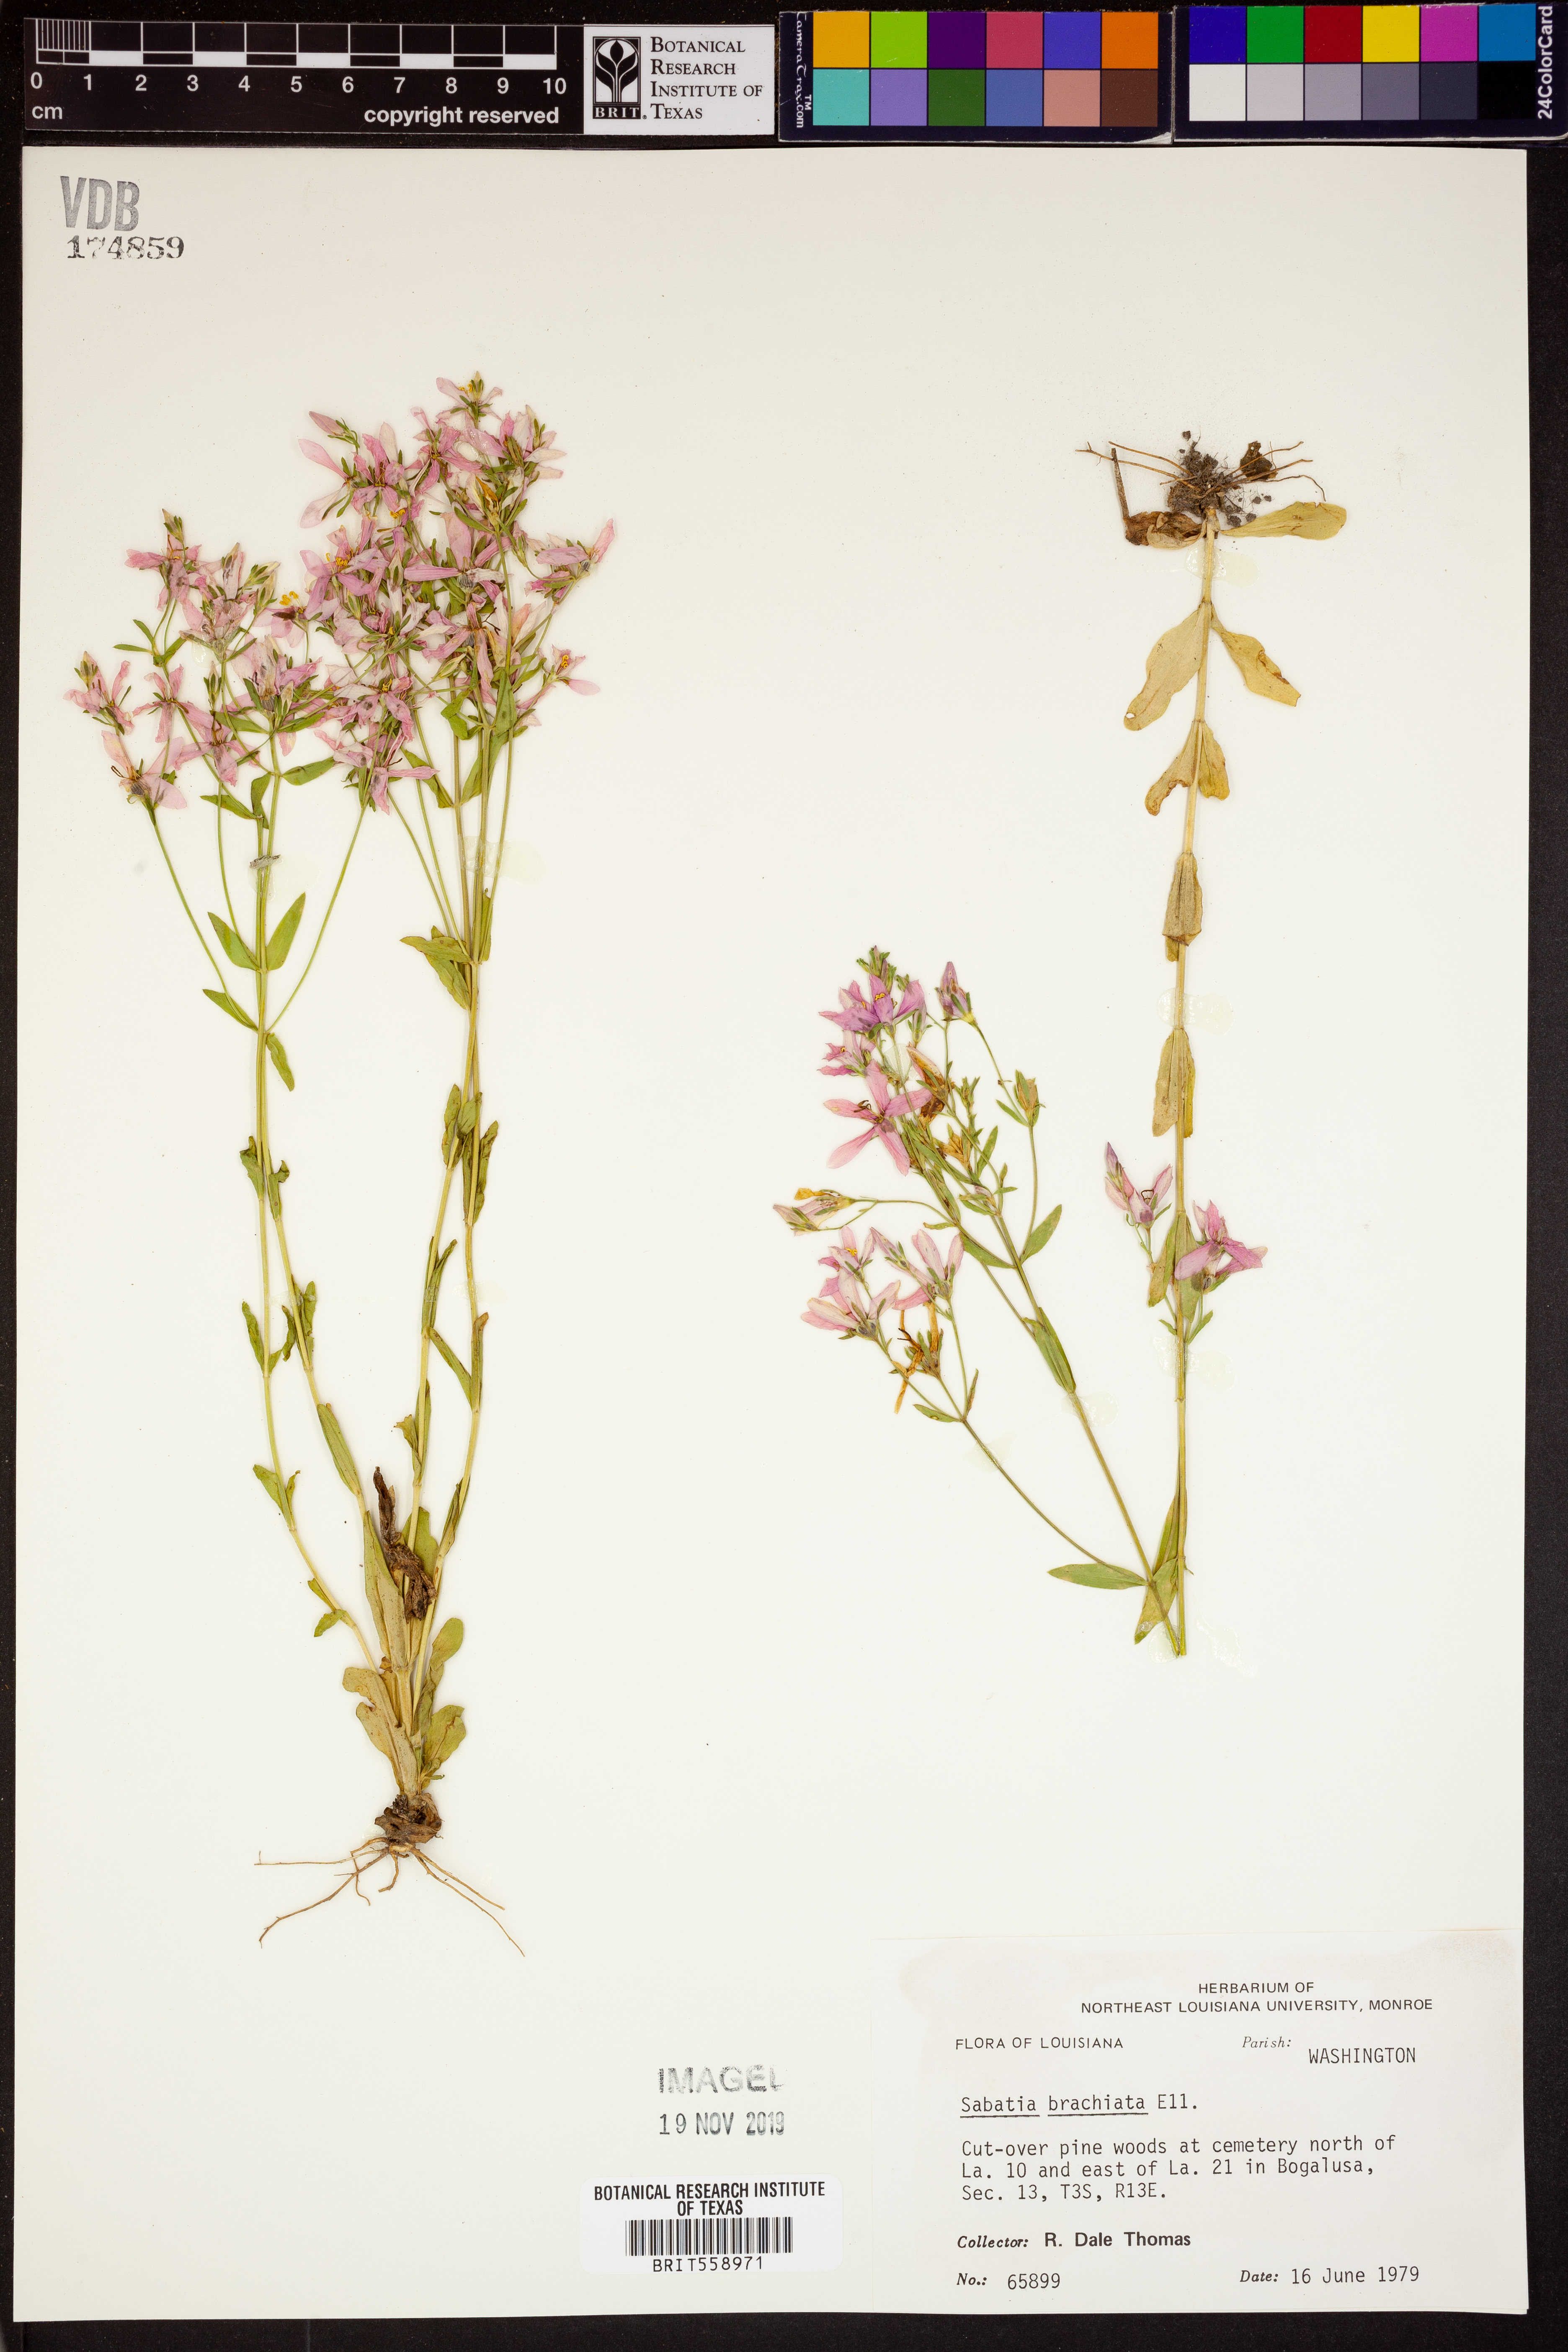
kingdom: Plantae
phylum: Tracheophyta
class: Magnoliopsida
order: Gentianales
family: Gentianaceae
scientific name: Gentianaceae
